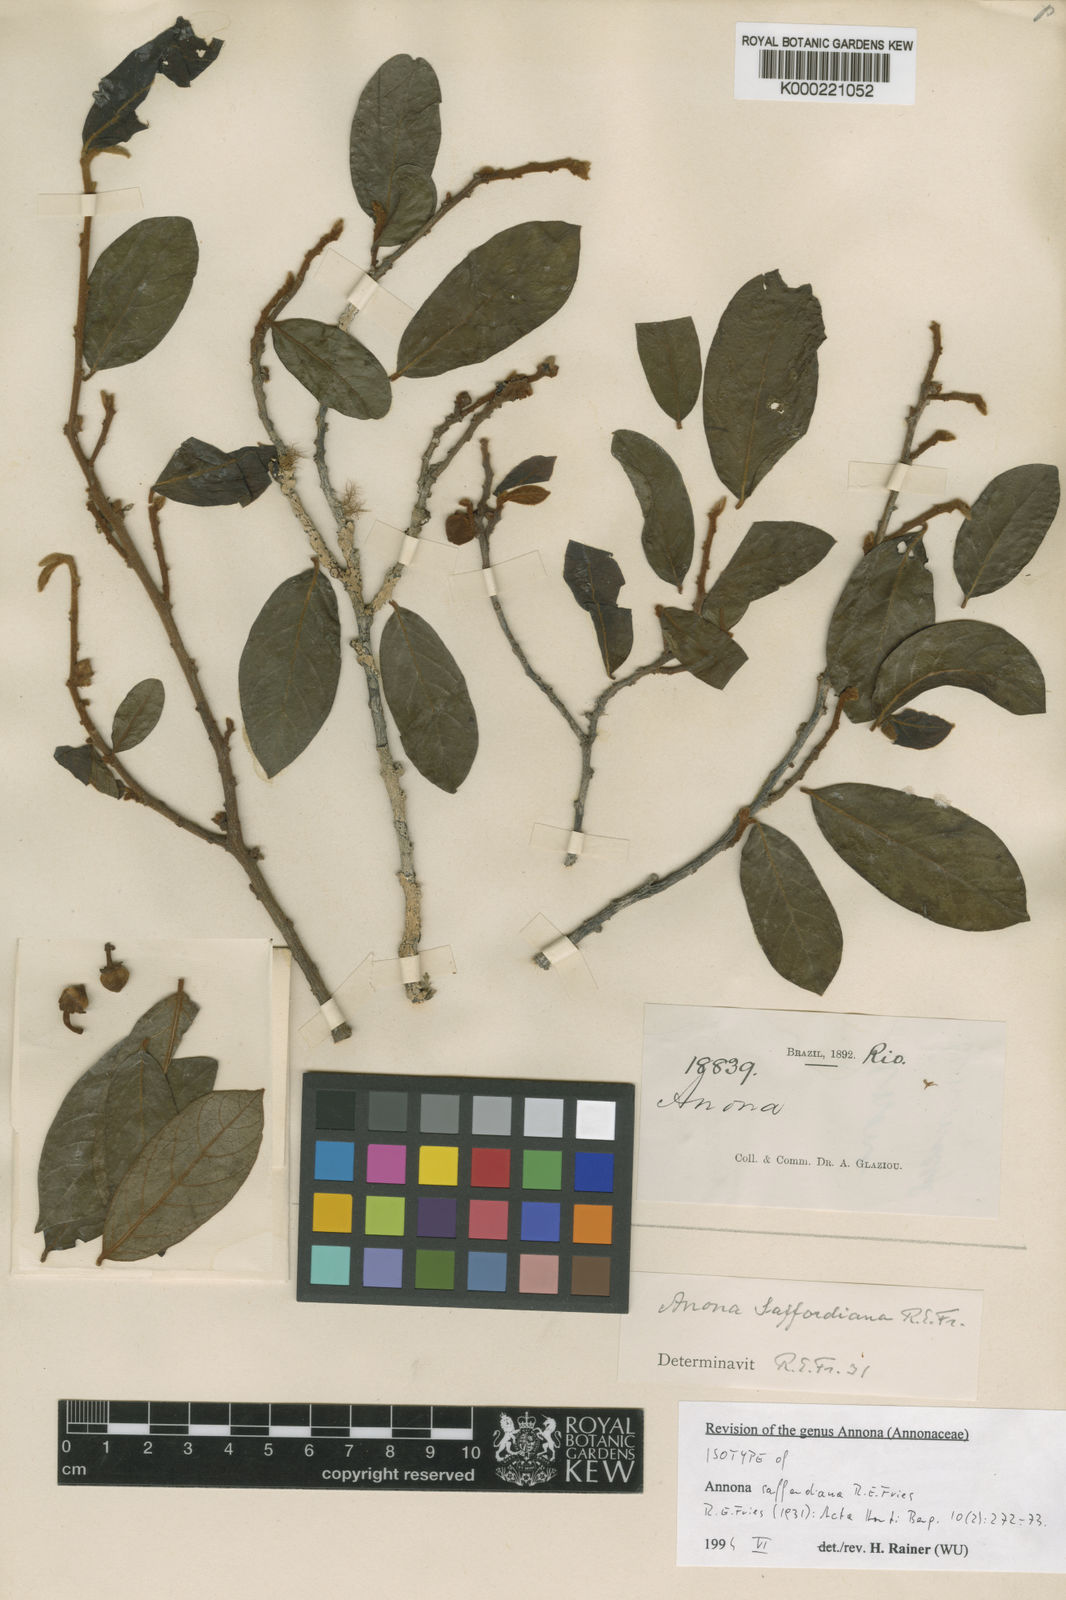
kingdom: Plantae
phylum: Tracheophyta
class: Magnoliopsida
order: Magnoliales
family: Annonaceae
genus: Annona
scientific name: Annona saffordiana
